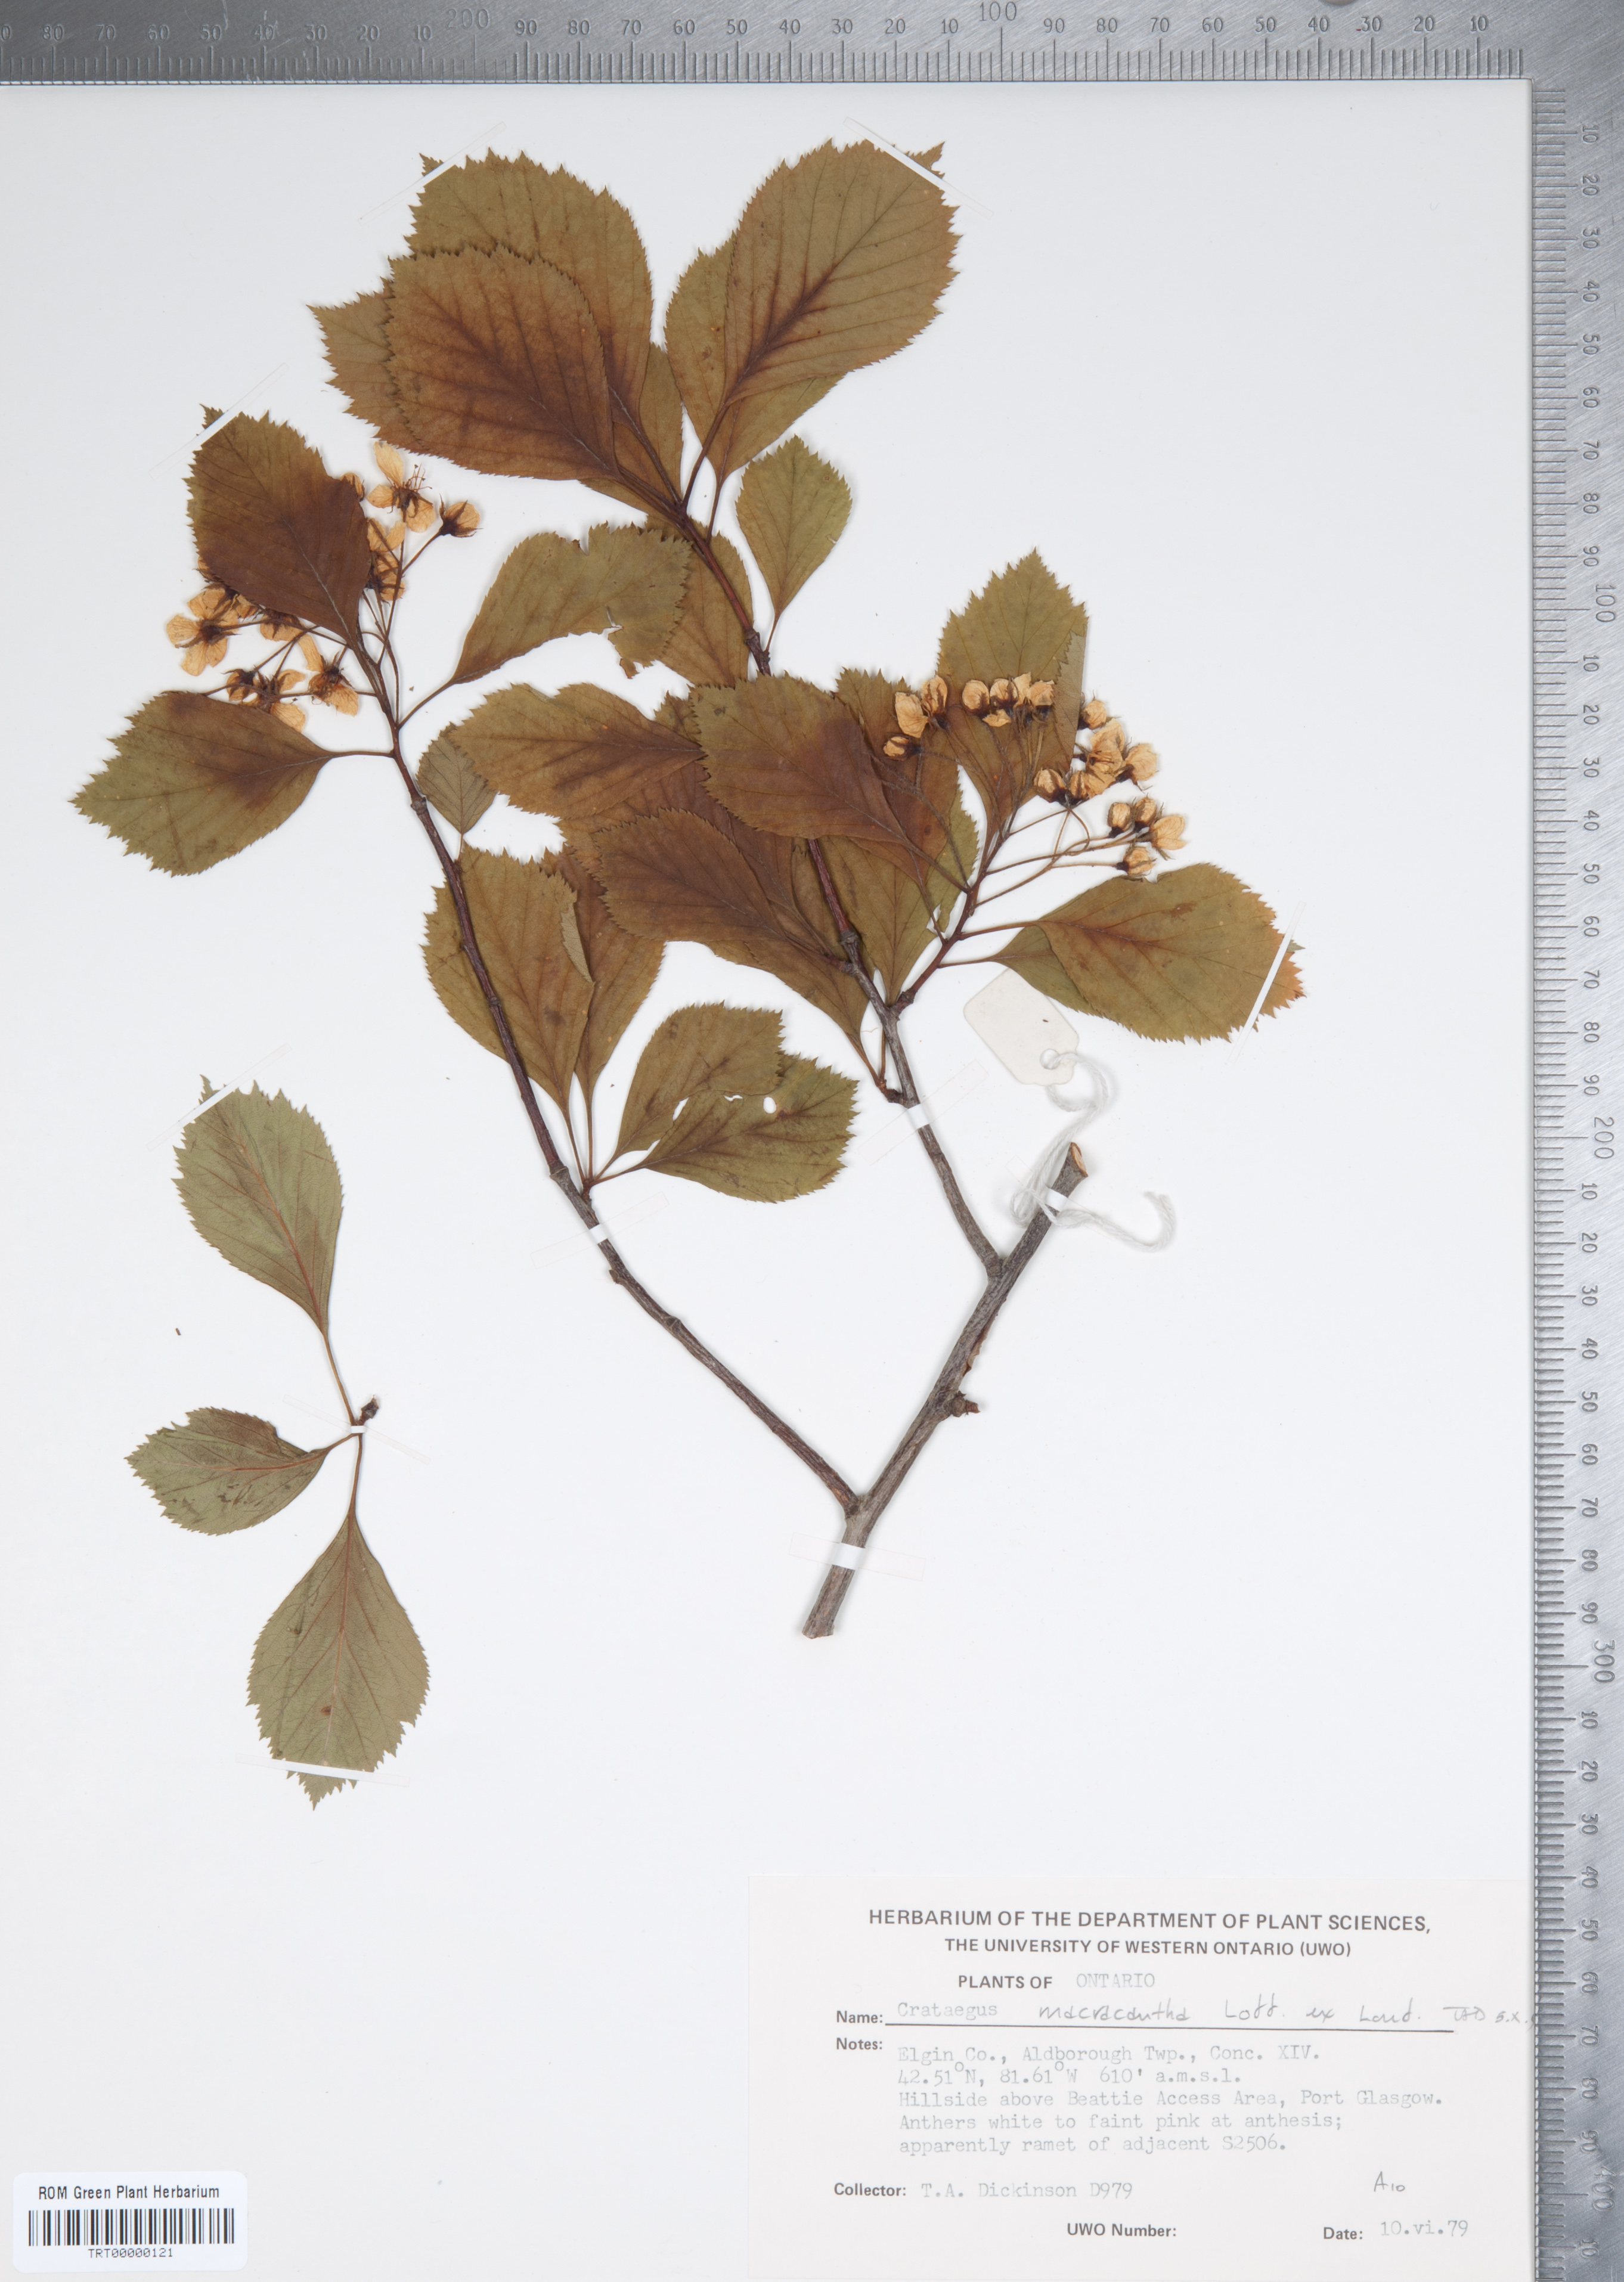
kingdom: Plantae
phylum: Tracheophyta
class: Magnoliopsida
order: Rosales
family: Rosaceae
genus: Crataegus
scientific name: Crataegus macracantha
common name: Large-thorn hawthorn
